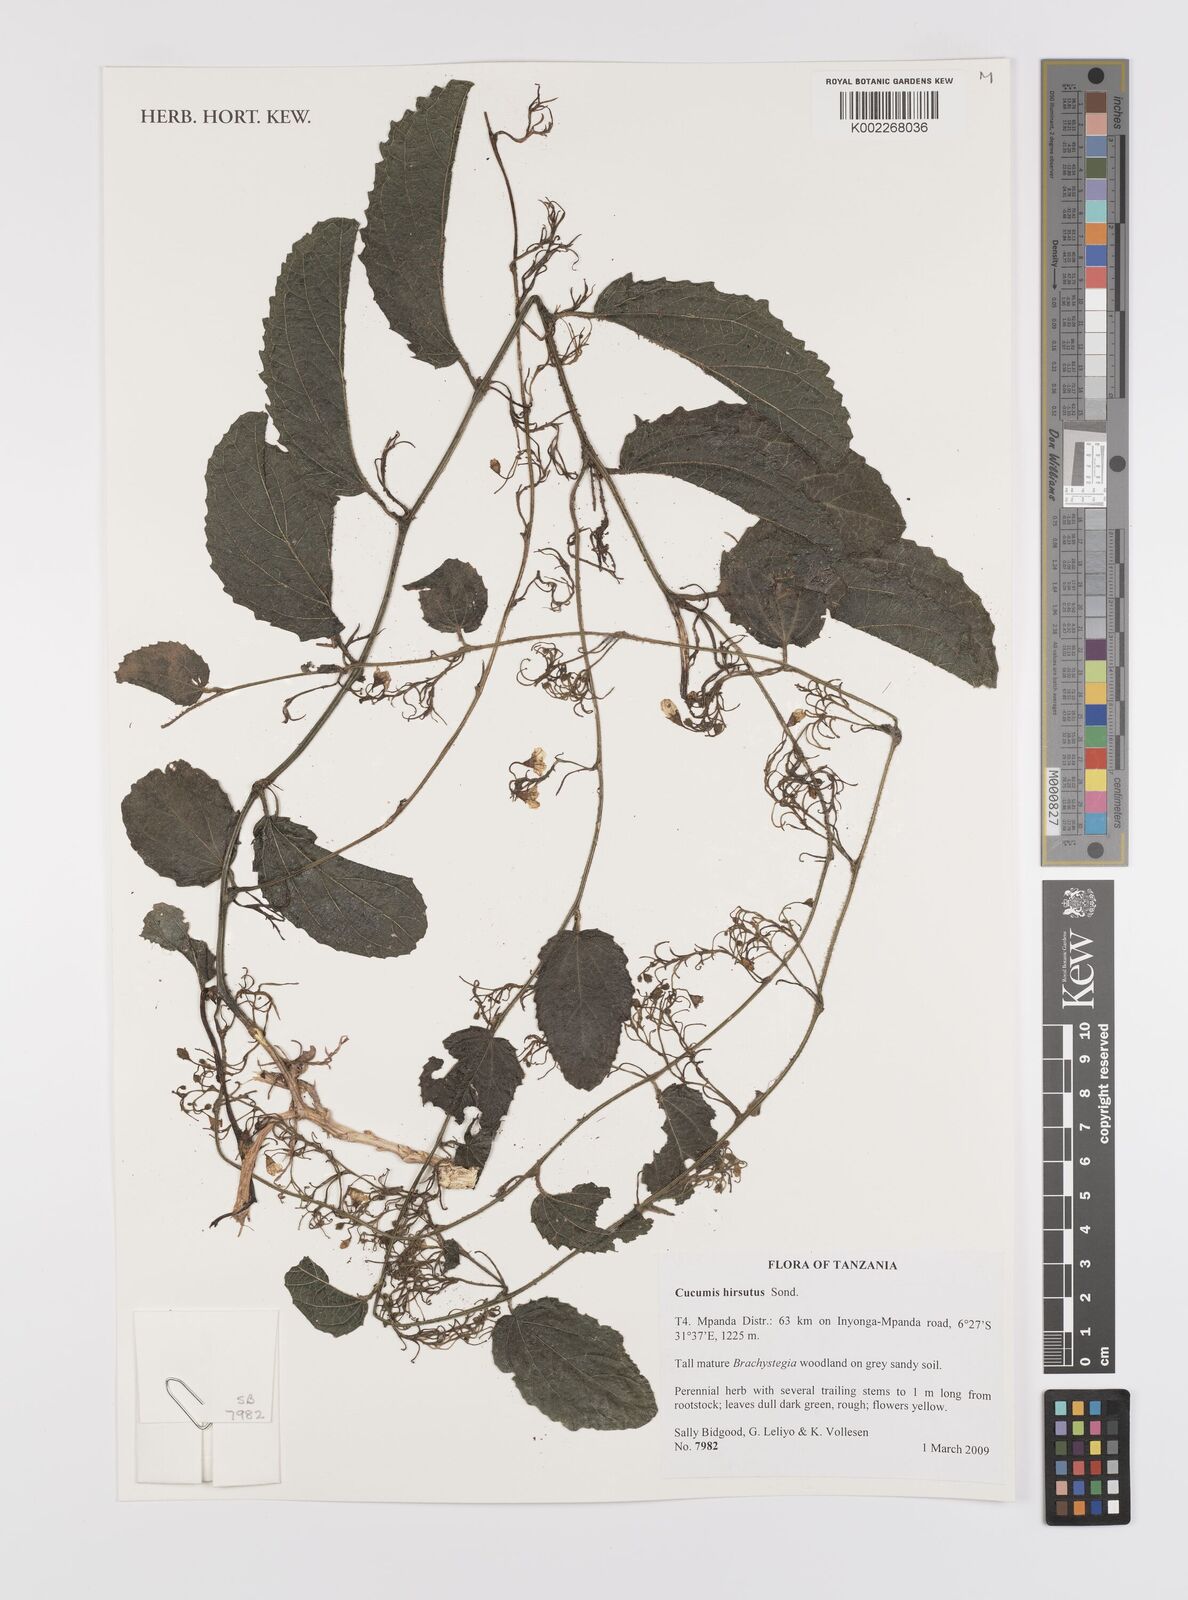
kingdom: Plantae
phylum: Tracheophyta
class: Magnoliopsida
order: Cucurbitales
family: Cucurbitaceae
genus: Cucumis
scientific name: Cucumis hirsutus
